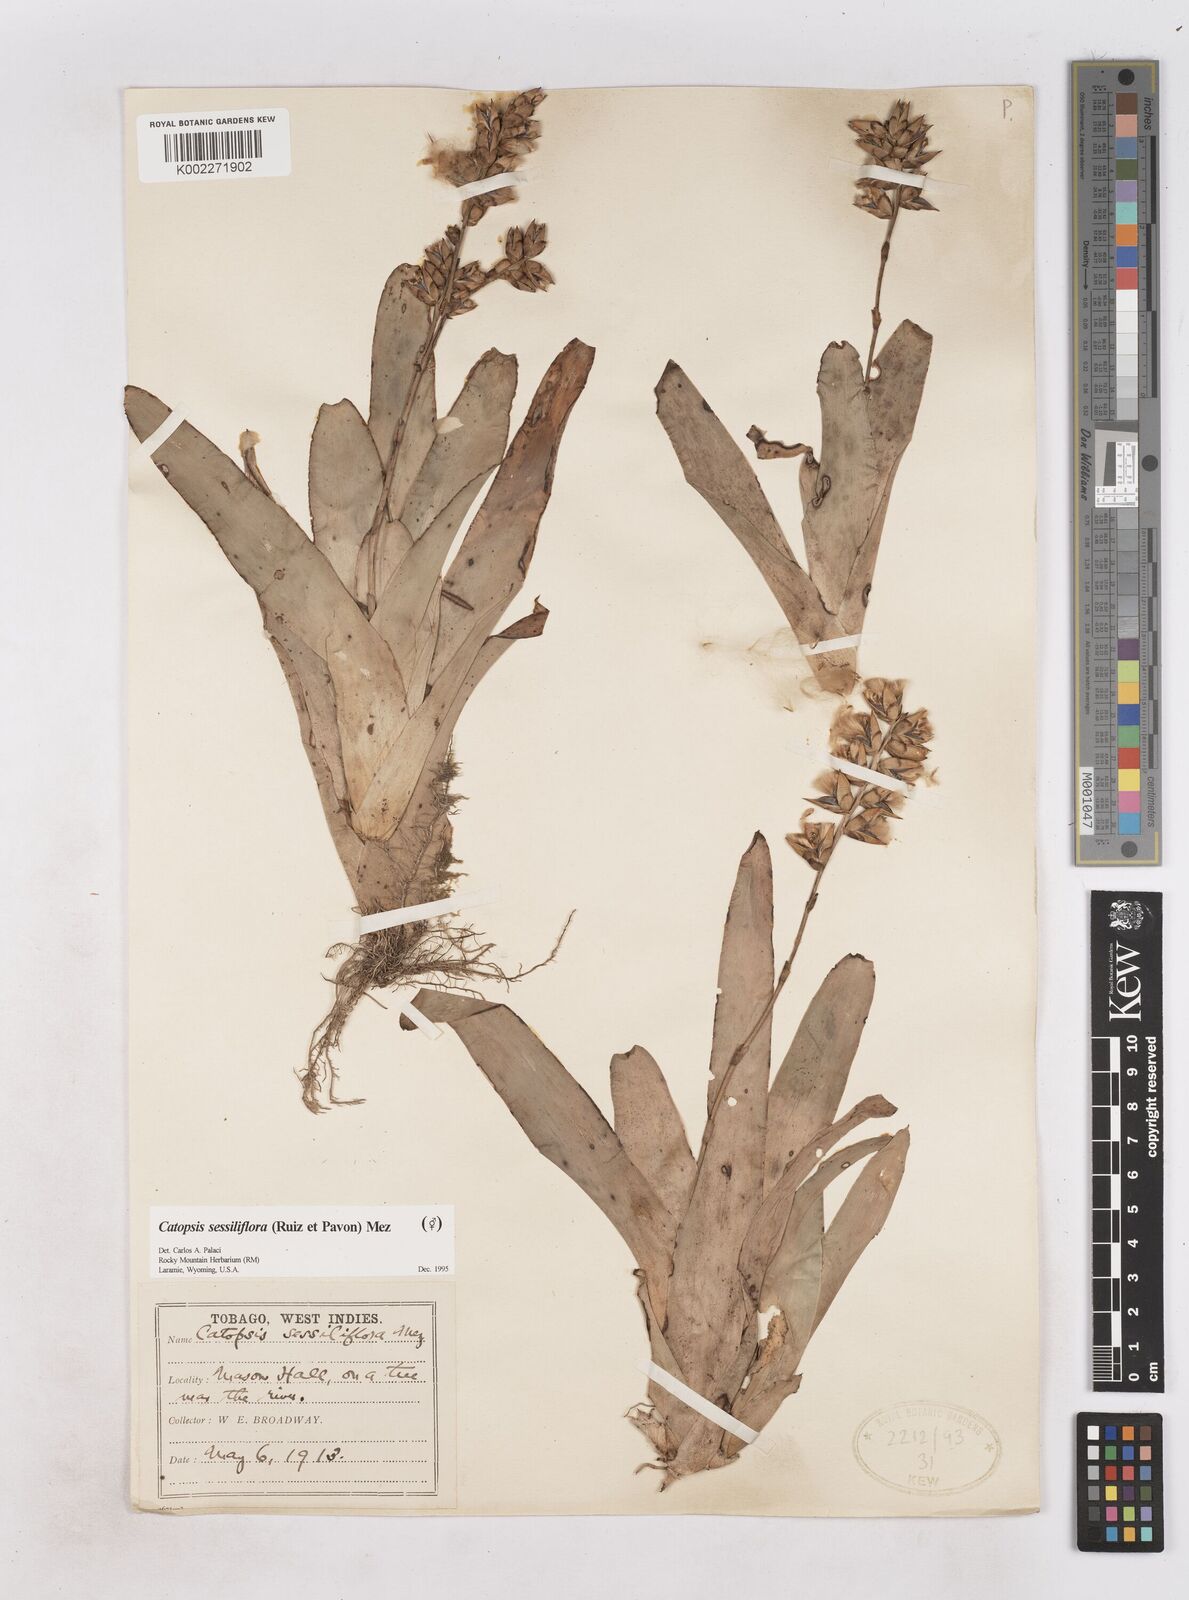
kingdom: Plantae
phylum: Tracheophyta
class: Liliopsida
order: Poales
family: Bromeliaceae
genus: Catopsis
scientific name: Catopsis sessiliflora
